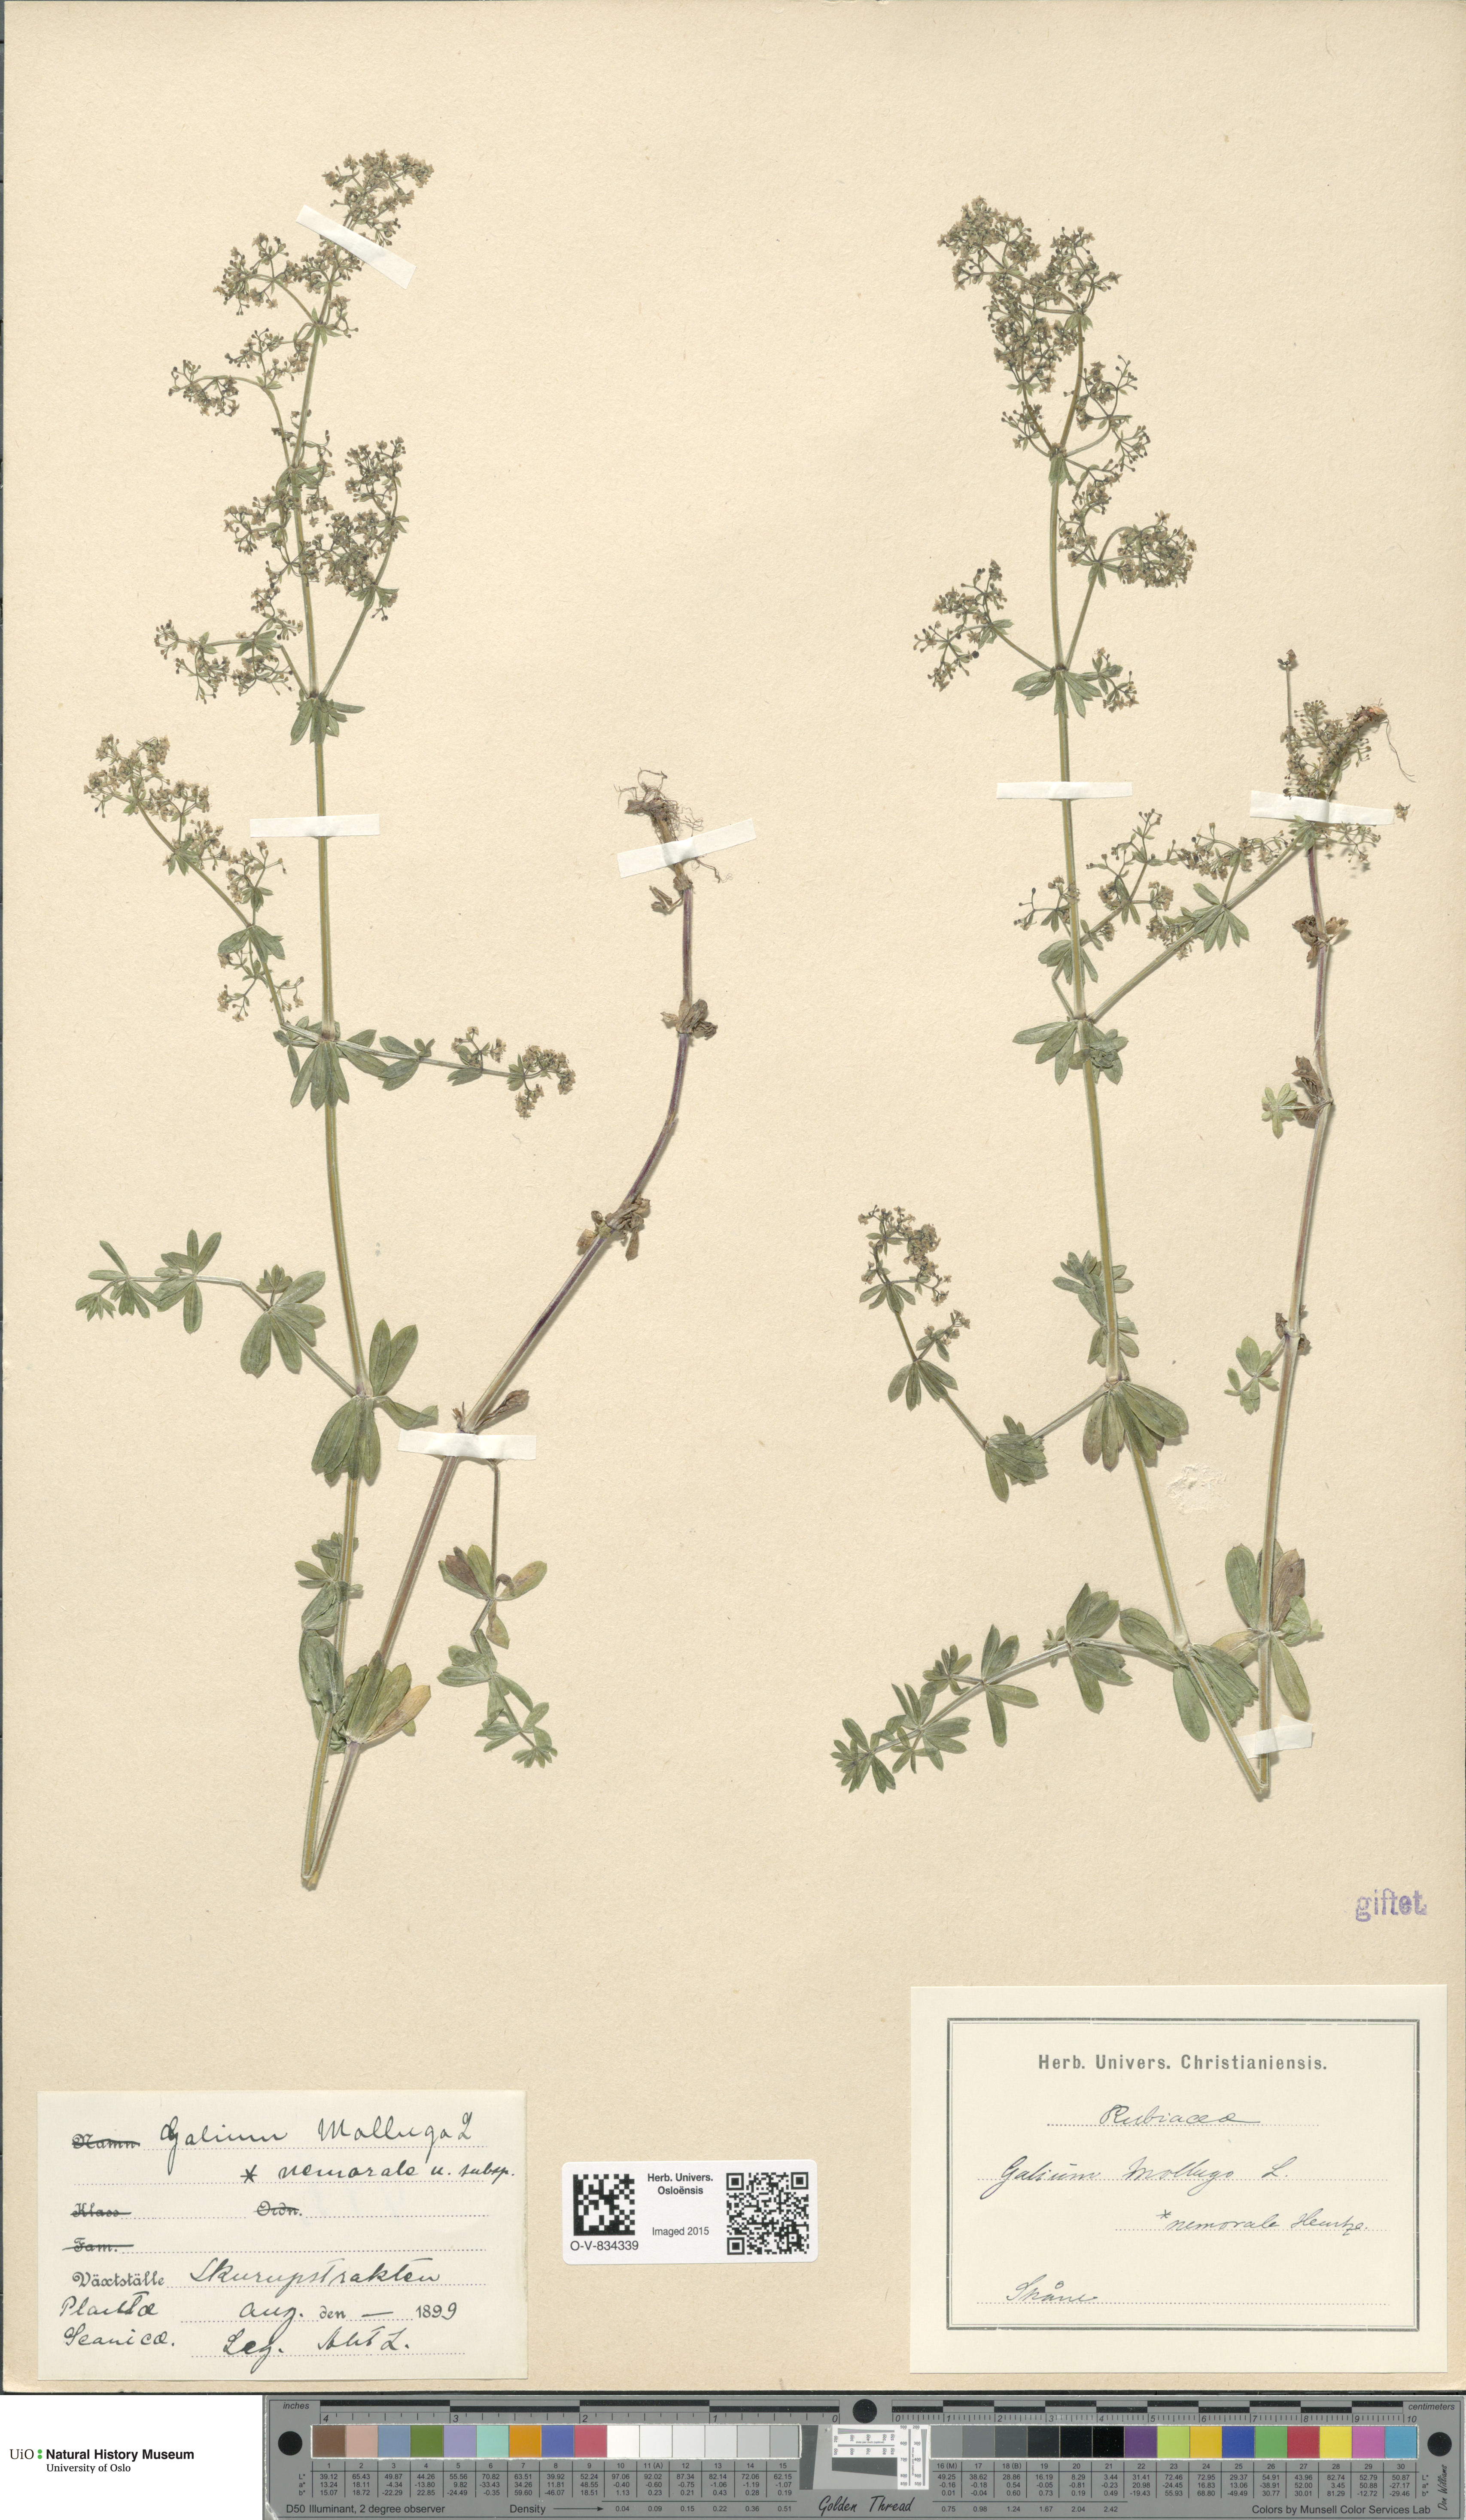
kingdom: Plantae
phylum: Tracheophyta
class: Magnoliopsida
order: Gentianales
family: Rubiaceae
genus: Galium
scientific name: Galium mollugo
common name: Hedge bedstraw
